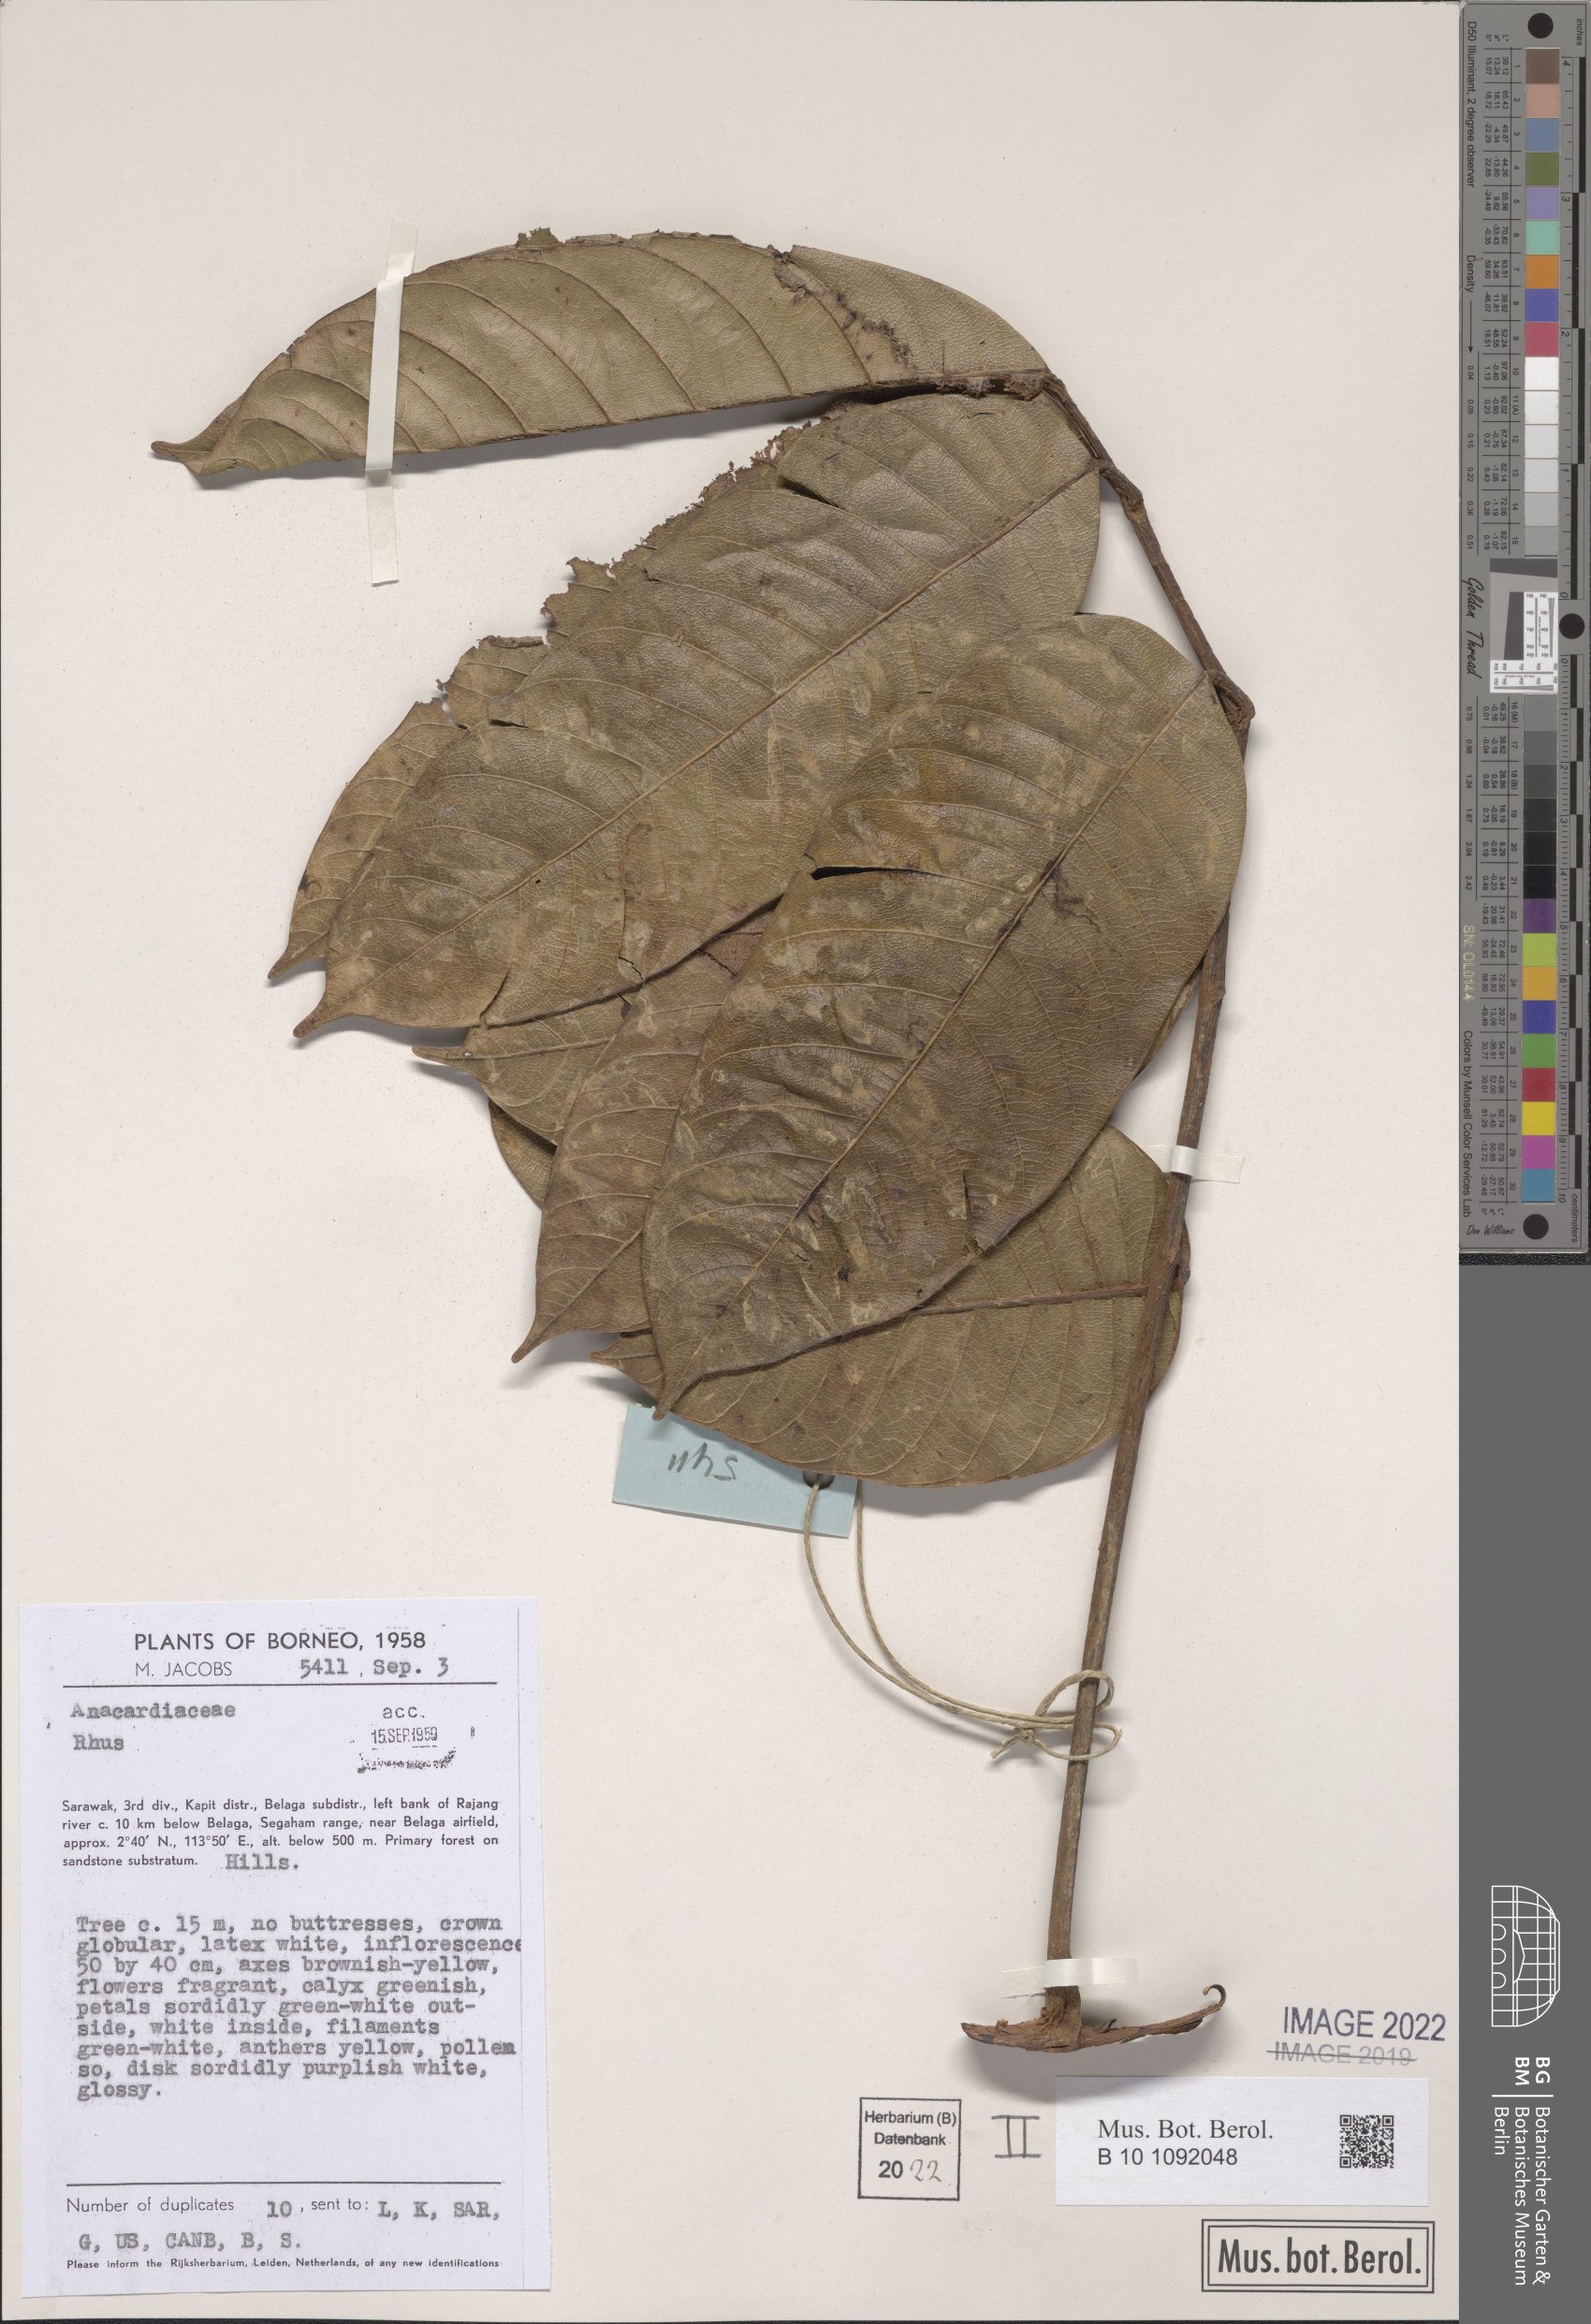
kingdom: Plantae
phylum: Tracheophyta
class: Magnoliopsida
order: Sapindales
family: Anacardiaceae
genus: Rhus
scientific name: Rhus
